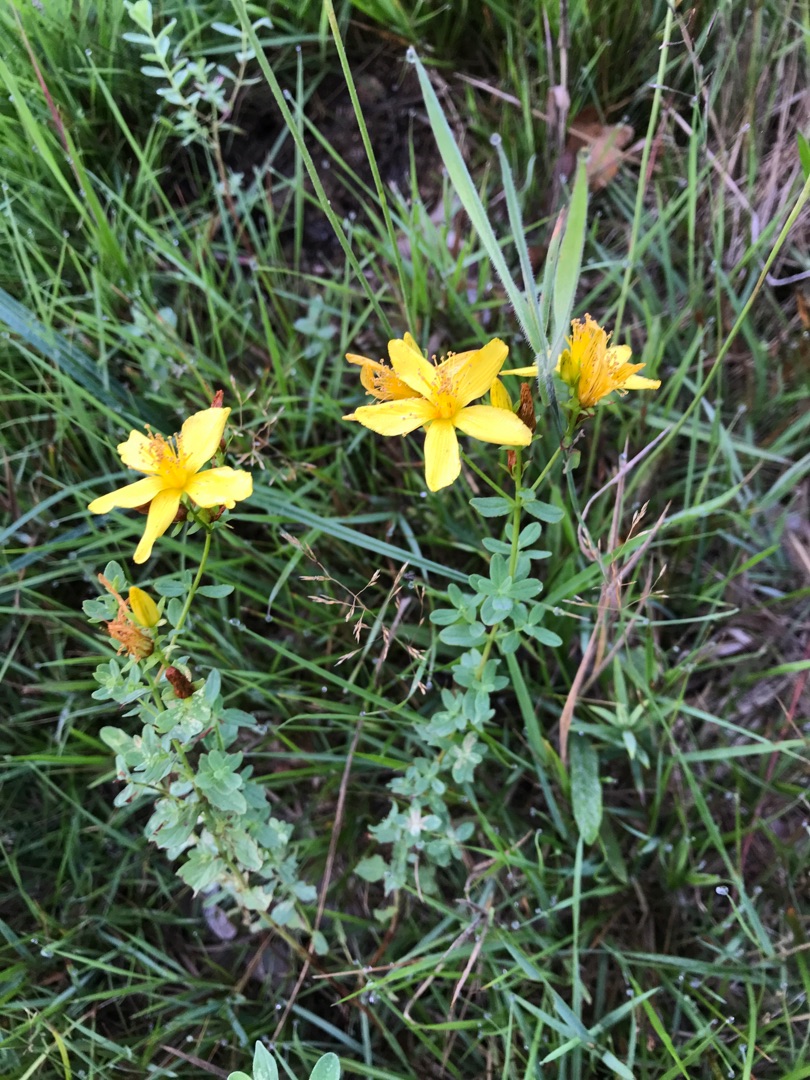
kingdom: Plantae
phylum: Tracheophyta
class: Magnoliopsida
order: Malpighiales
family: Hypericaceae
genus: Hypericum
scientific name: Hypericum perforatum
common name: Prikbladet perikon
